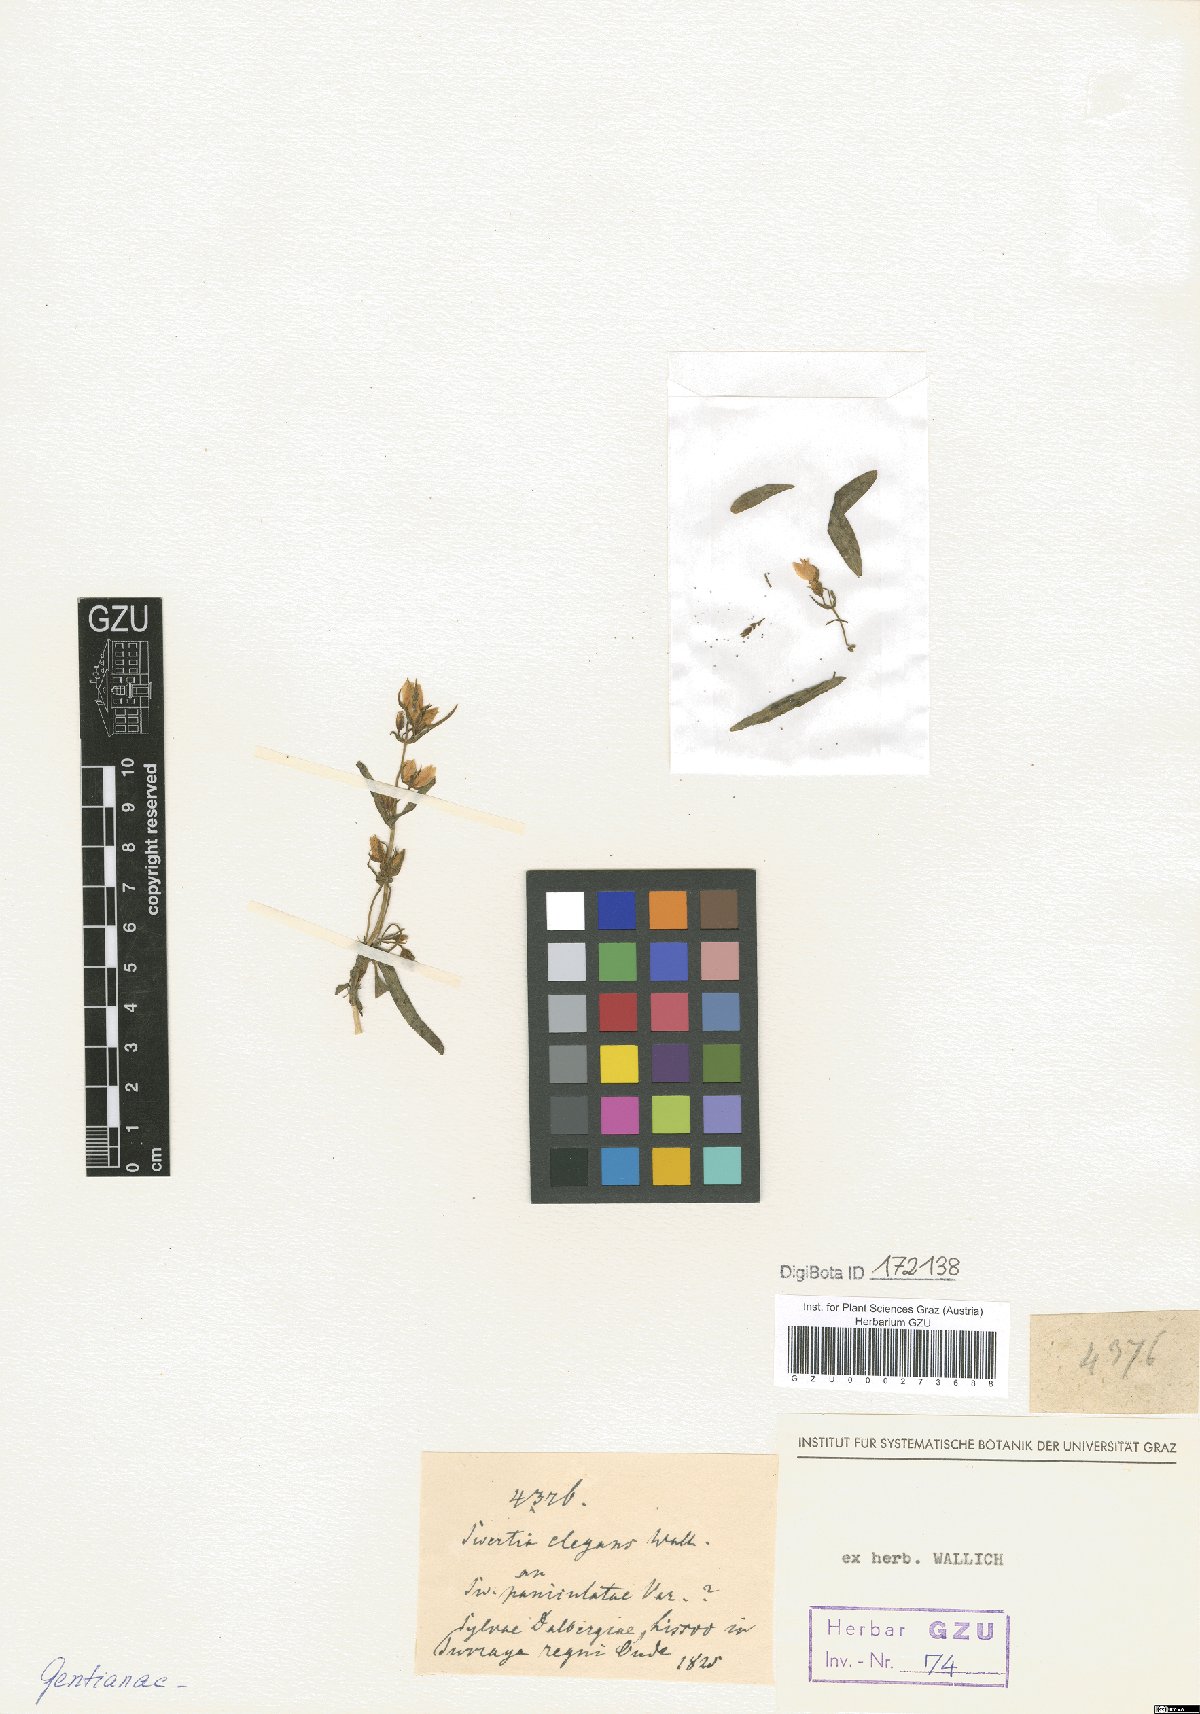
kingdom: Plantae
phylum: Tracheophyta
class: Magnoliopsida
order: Gentianales
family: Gentianaceae
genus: Swertia
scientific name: Swertia angustifolia
